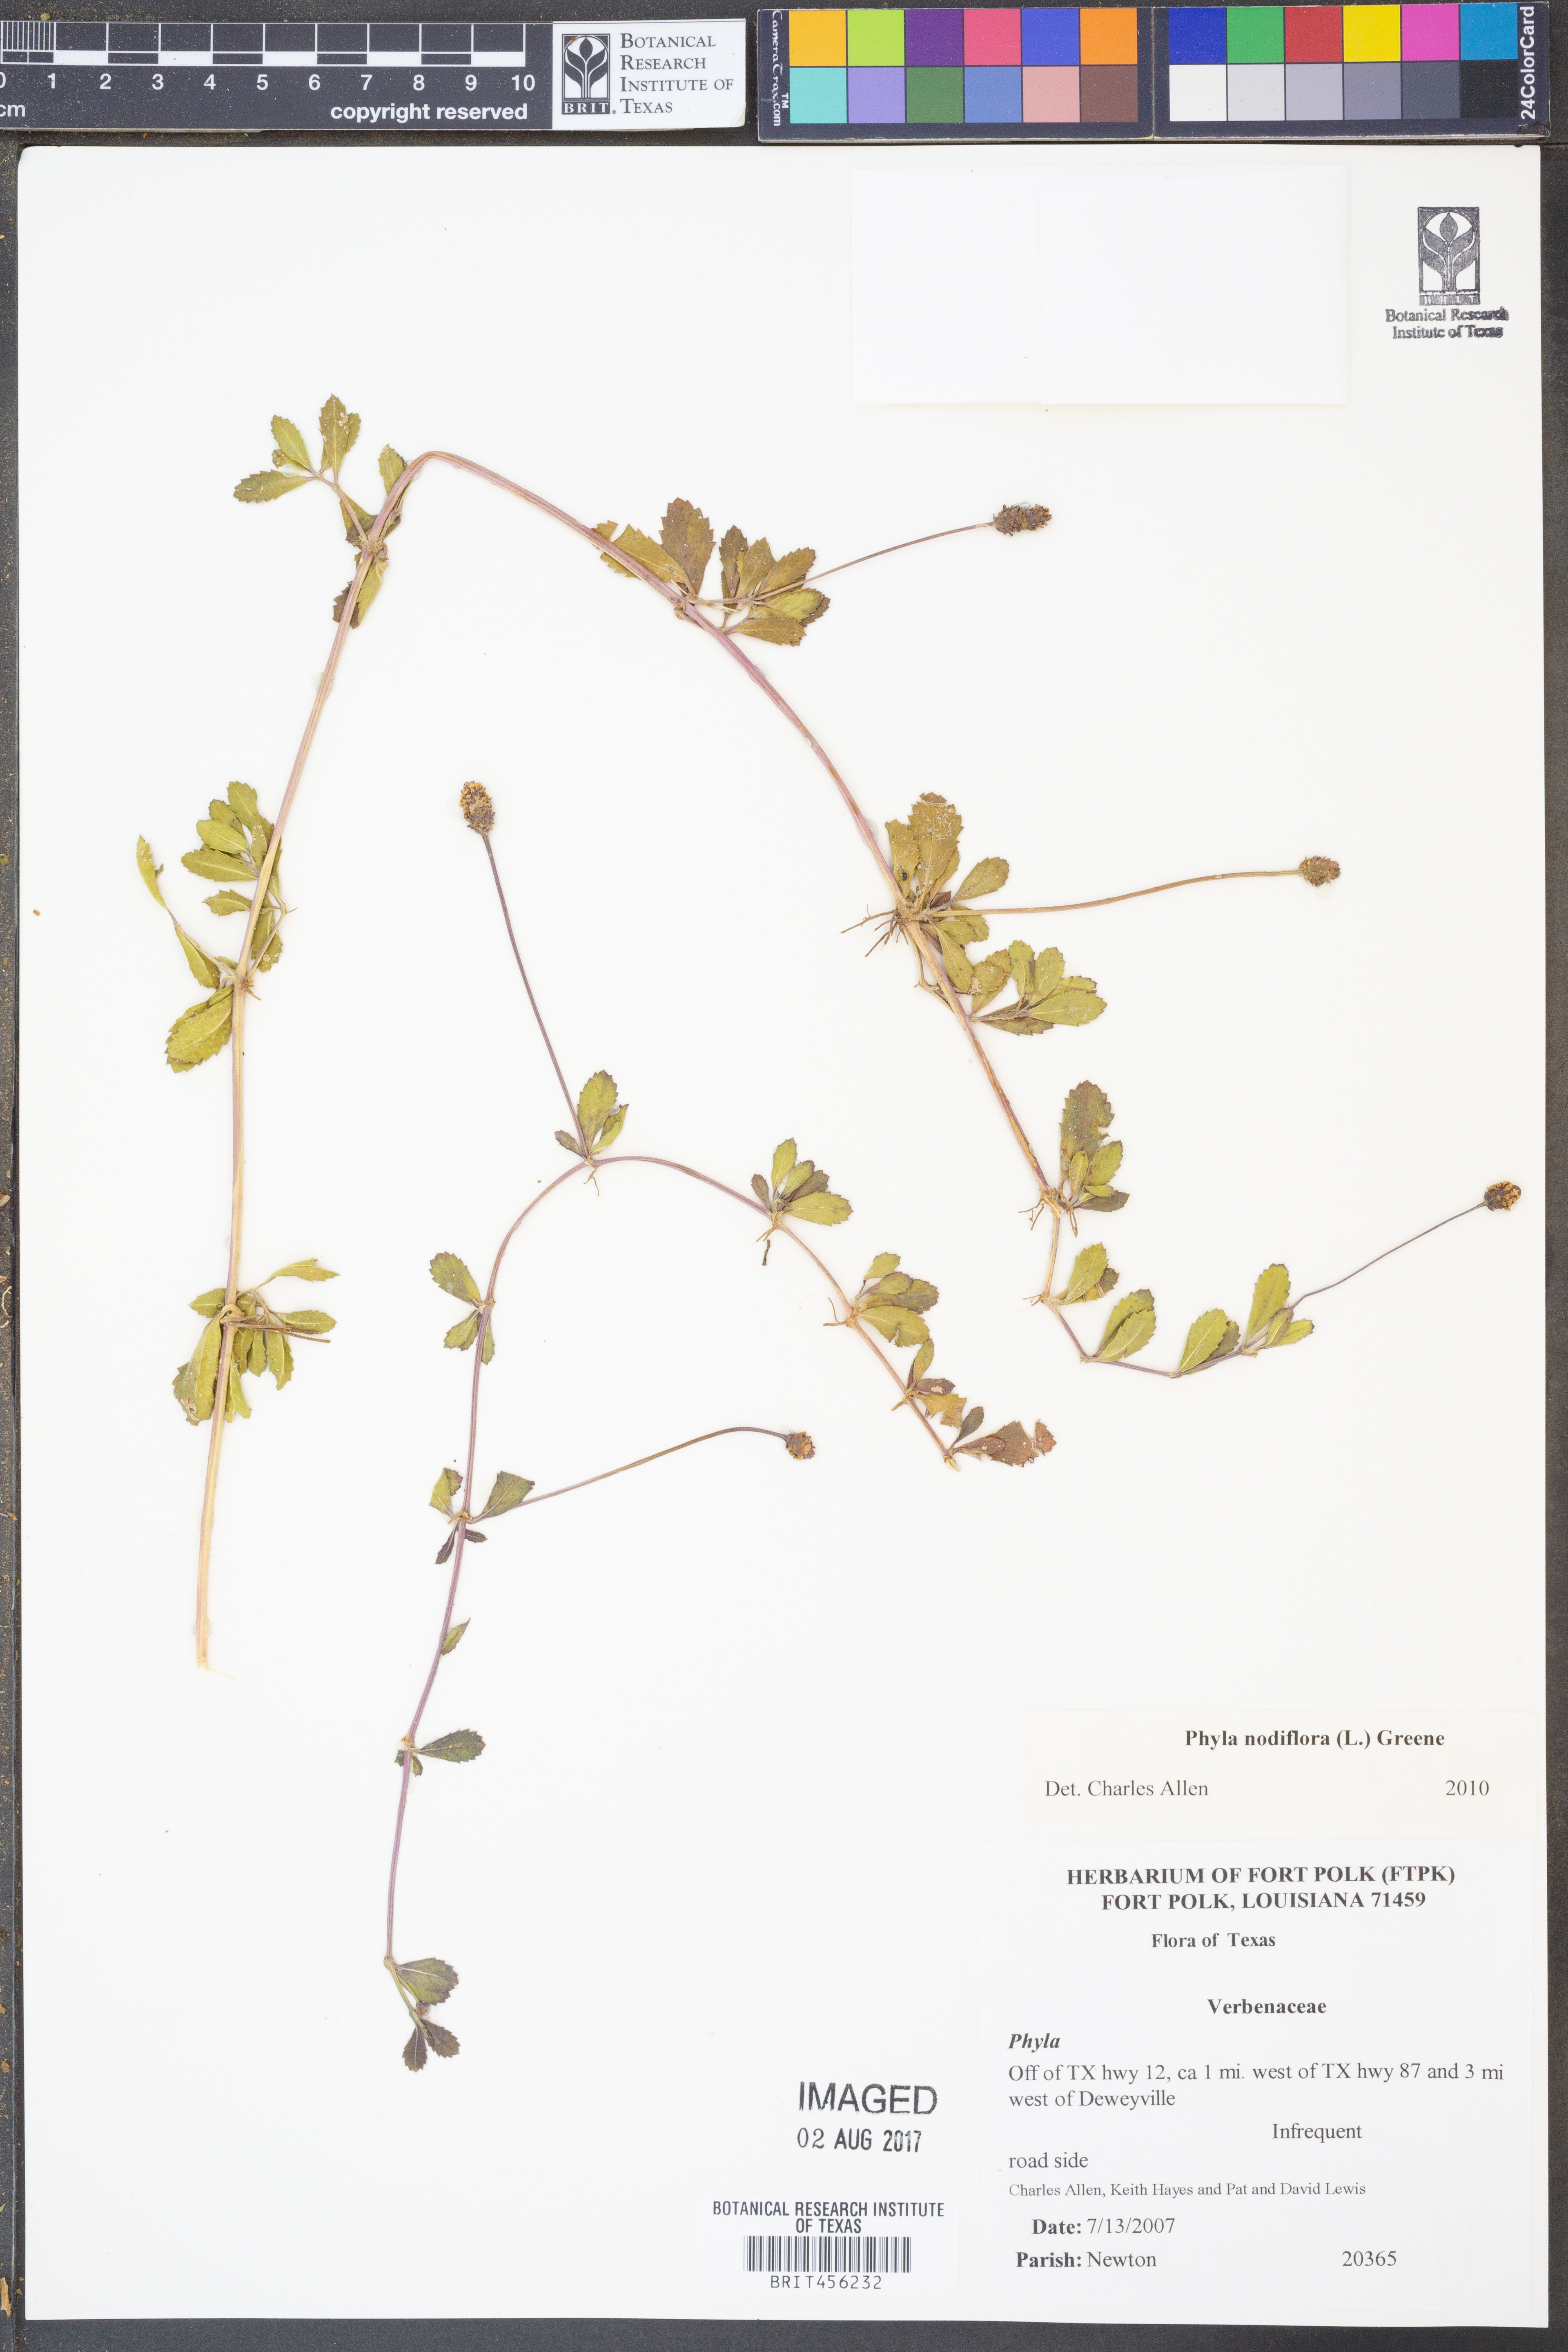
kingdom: Plantae
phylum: Tracheophyta
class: Magnoliopsida
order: Lamiales
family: Verbenaceae
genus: Phyla
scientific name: Phyla nodiflora
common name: Frogfruit
